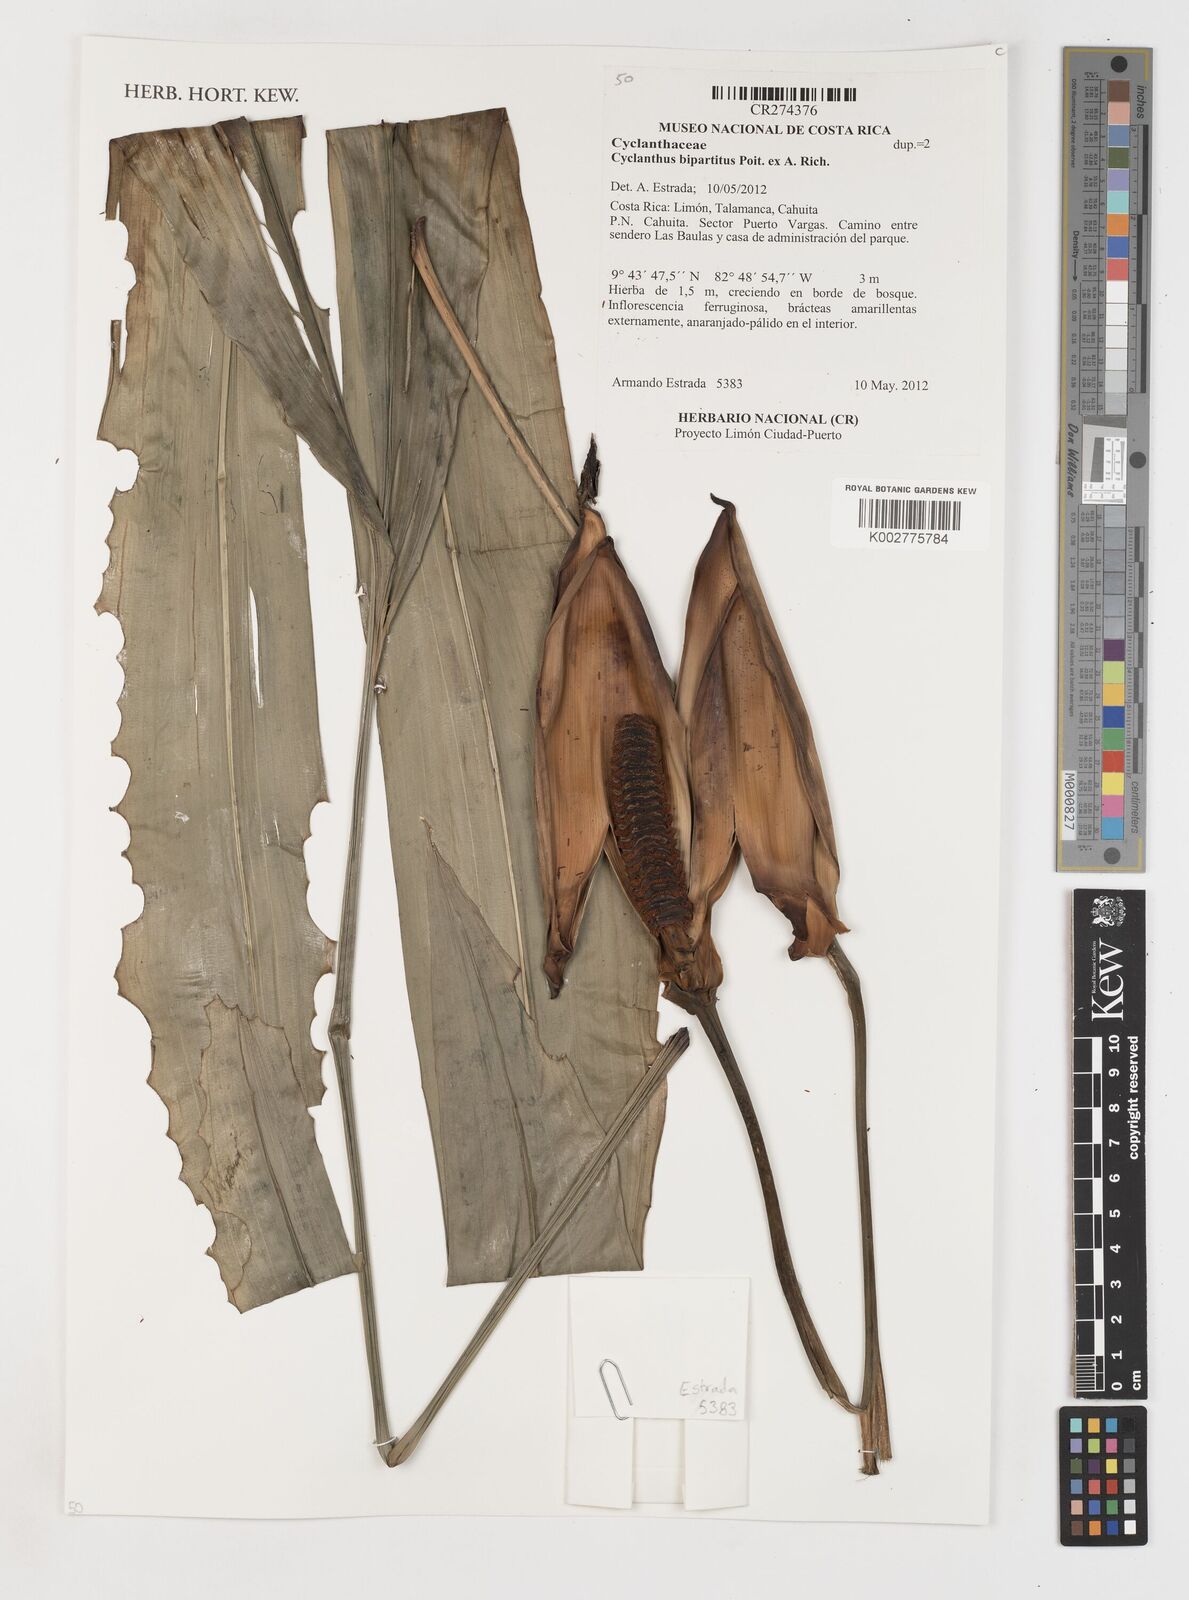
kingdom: Plantae
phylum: Tracheophyta
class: Liliopsida
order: Pandanales
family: Cyclanthaceae
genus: Cyclanthus
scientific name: Cyclanthus bipartitus
